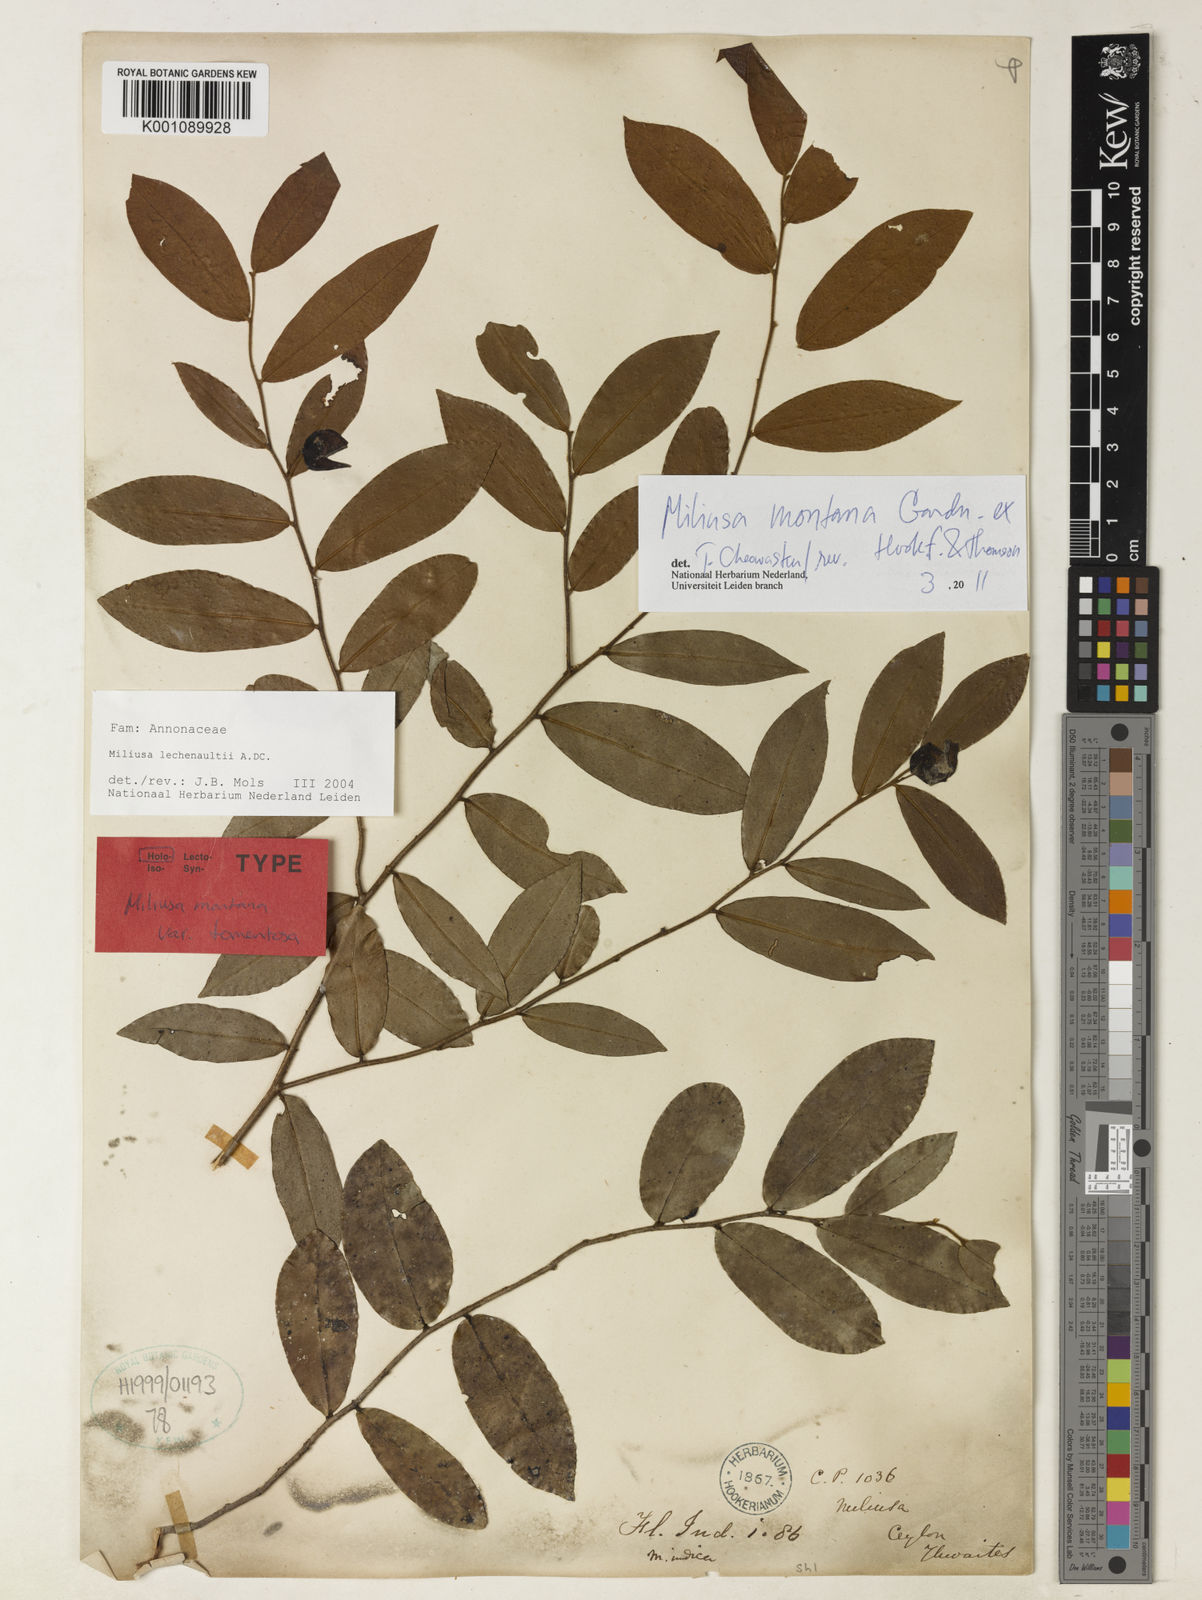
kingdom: Plantae
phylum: Tracheophyta
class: Magnoliopsida
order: Magnoliales
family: Annonaceae
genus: Miliusa
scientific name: Miliusa indica
